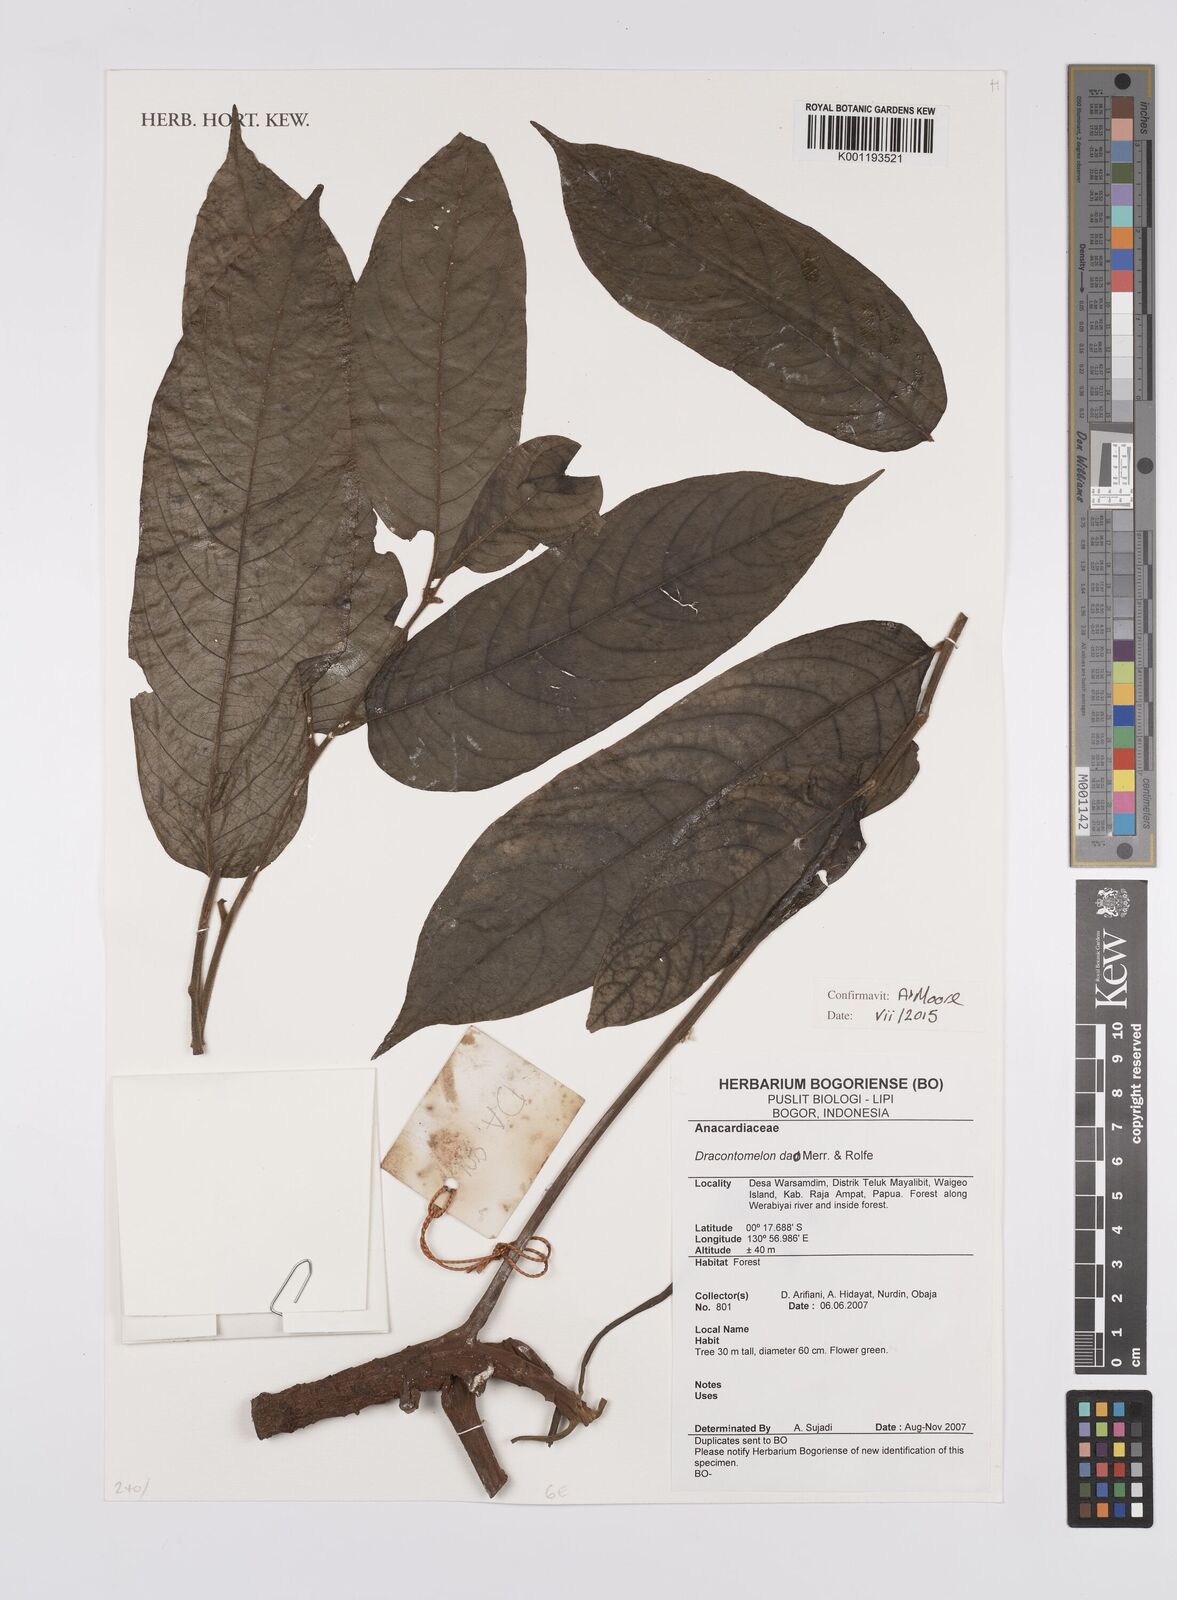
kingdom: Plantae
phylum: Tracheophyta
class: Magnoliopsida
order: Sapindales
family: Anacardiaceae
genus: Dracontomelon
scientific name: Dracontomelon dao
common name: Argus pheasant-tree
